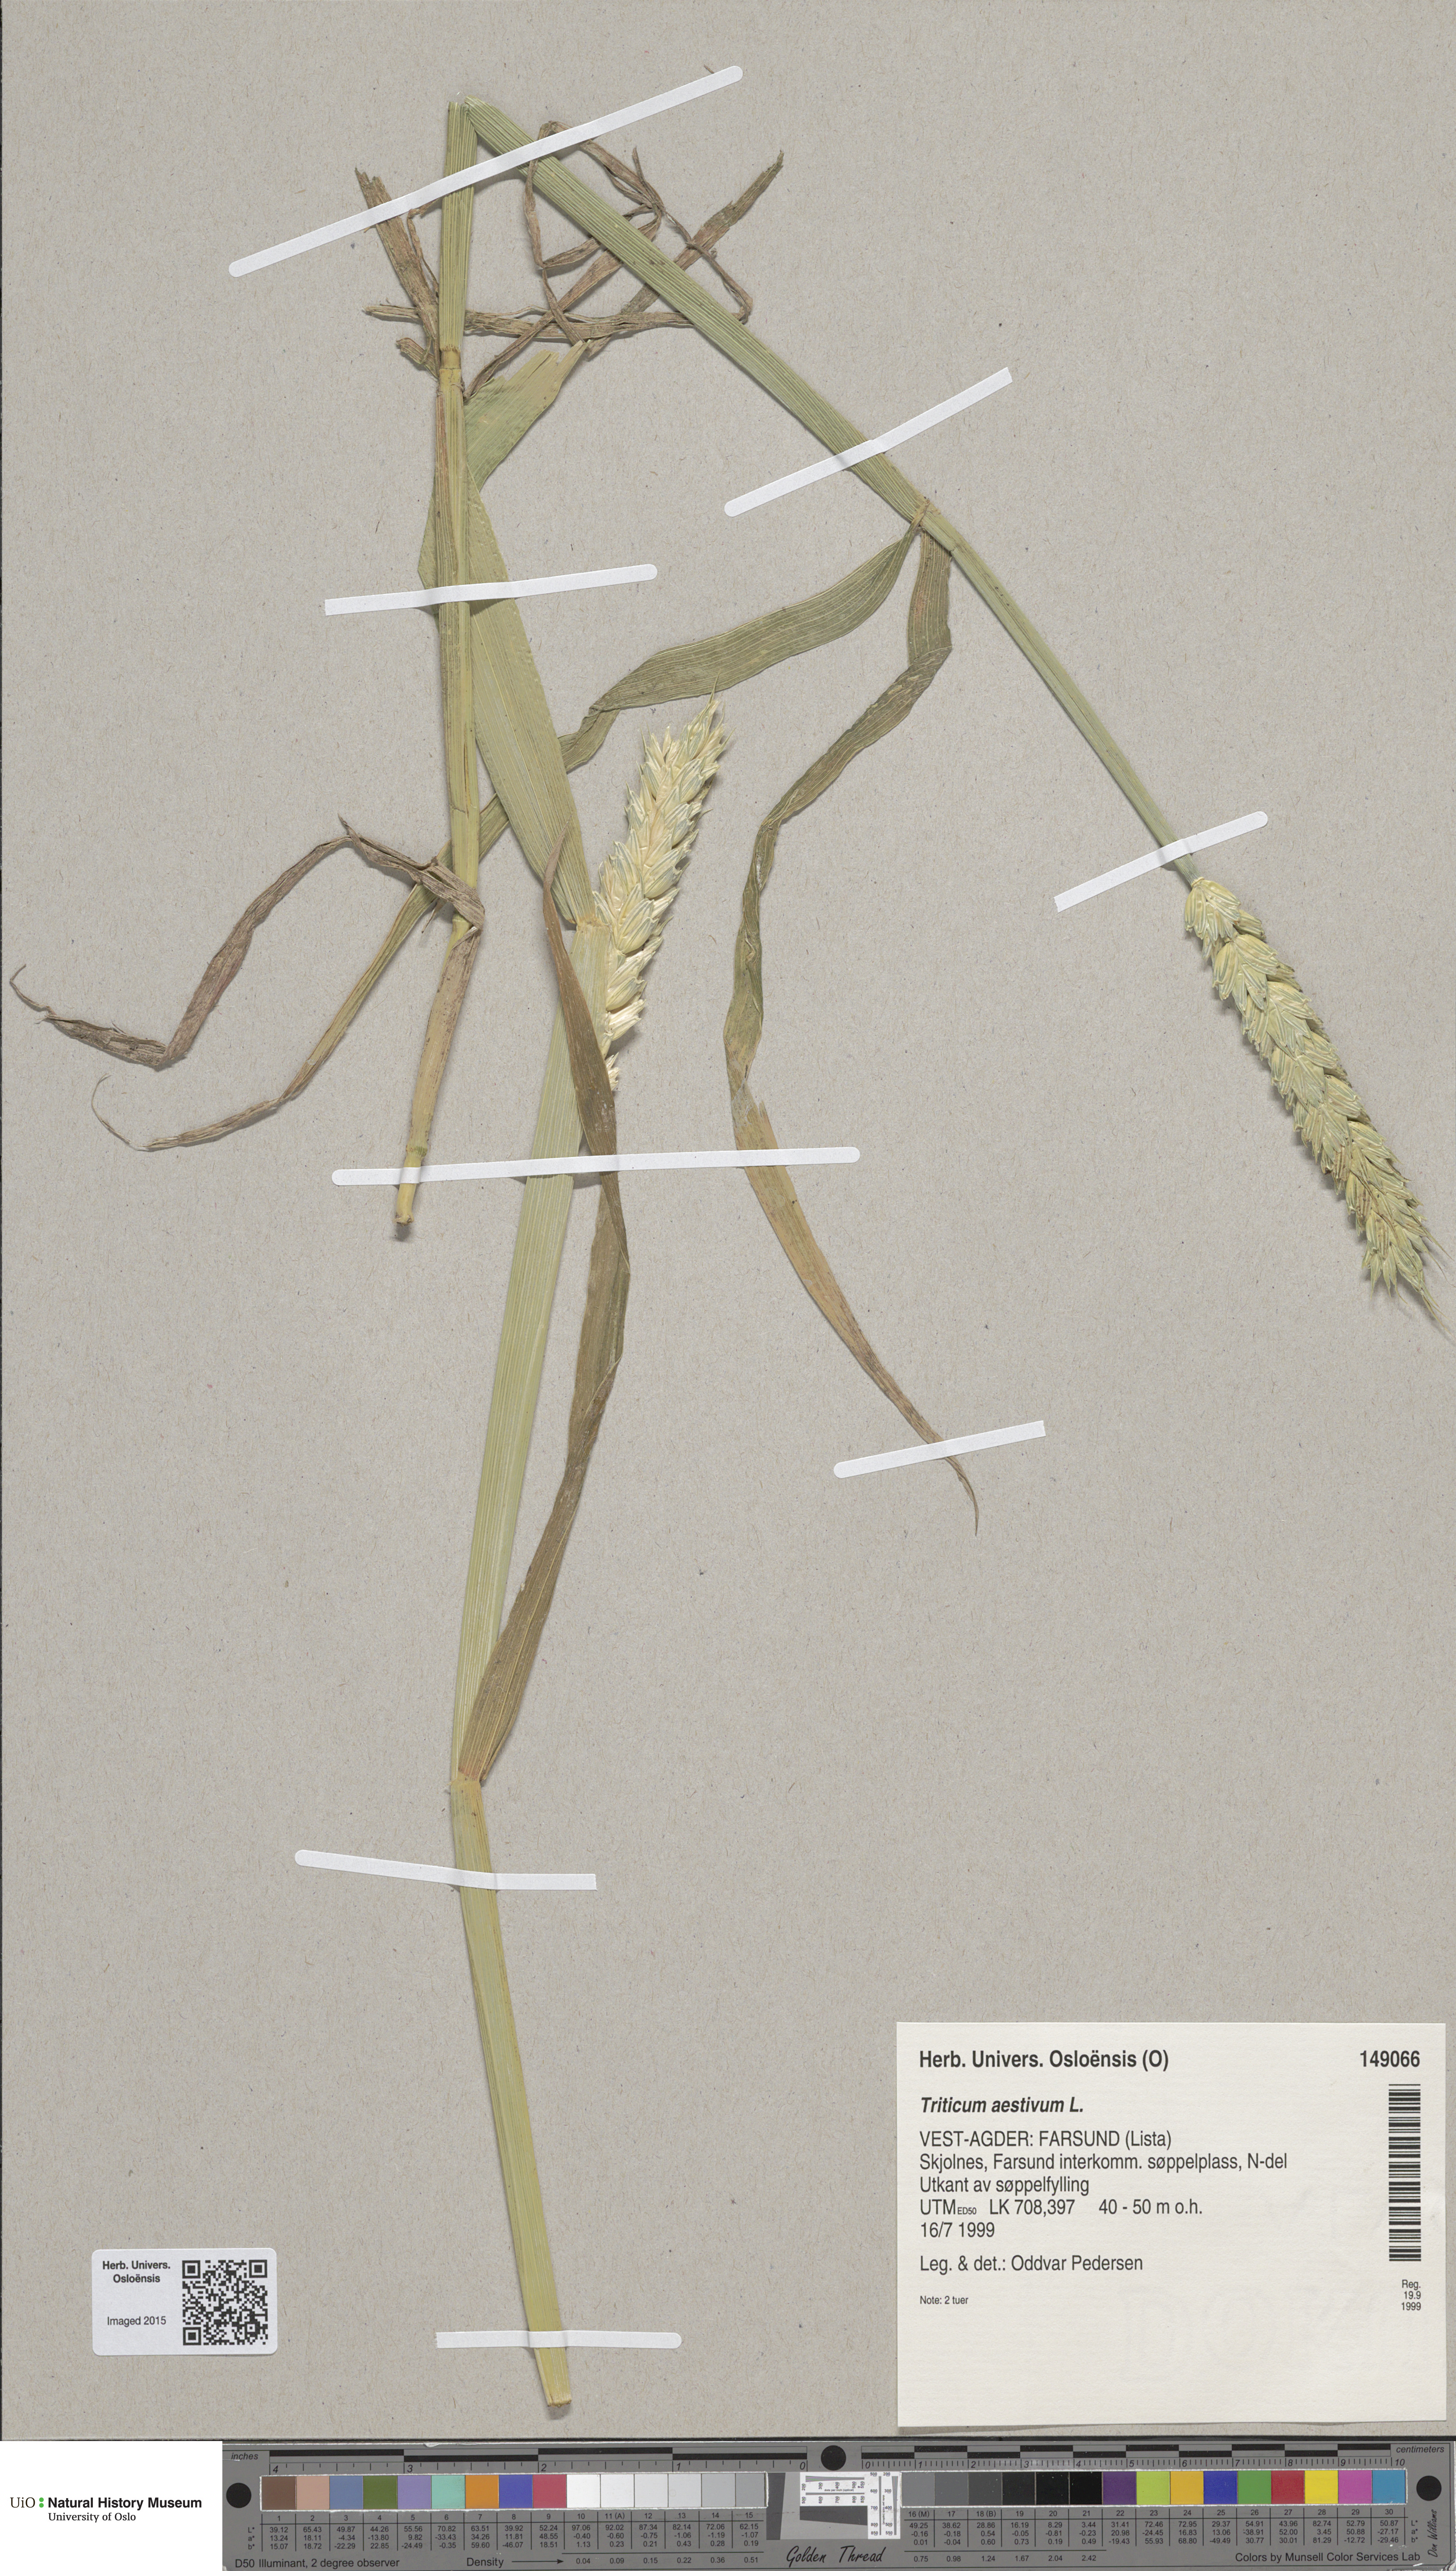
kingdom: Plantae
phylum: Tracheophyta
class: Liliopsida
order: Poales
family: Poaceae
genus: Triticum
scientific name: Triticum aestivum
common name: Common wheat
